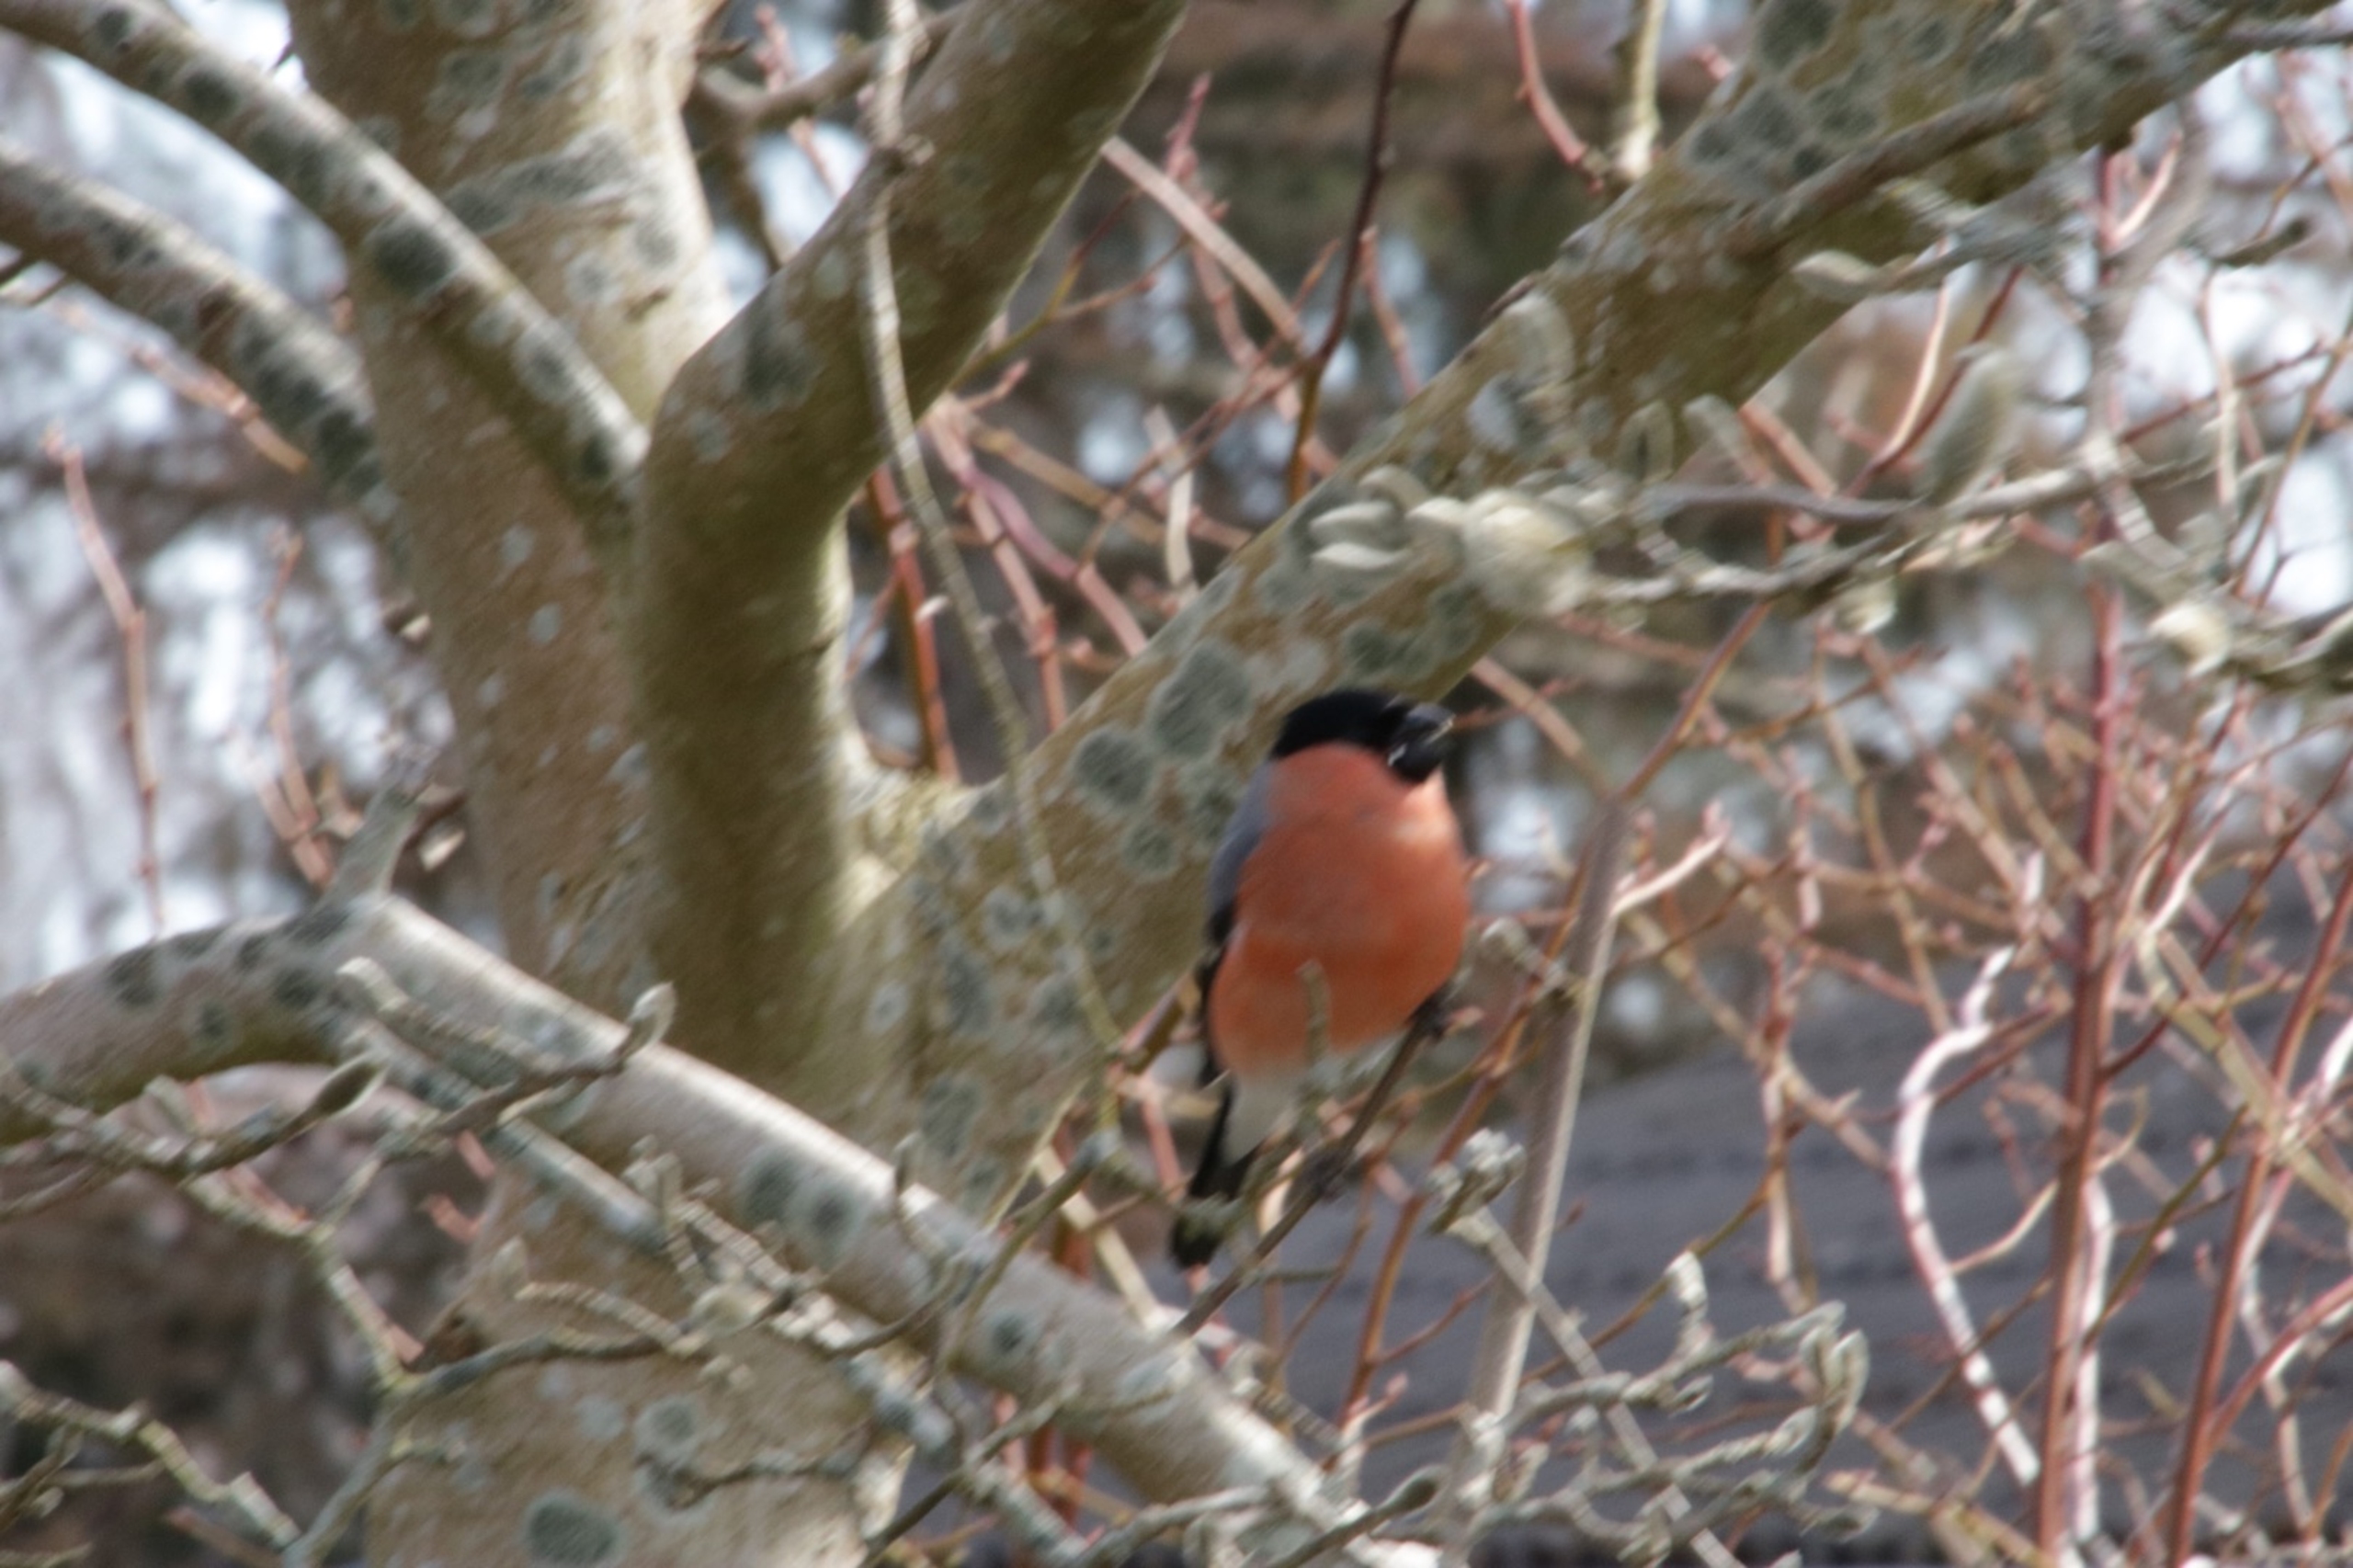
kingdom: Animalia
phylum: Chordata
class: Aves
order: Passeriformes
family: Fringillidae
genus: Pyrrhula
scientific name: Pyrrhula pyrrhula
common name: Dompap
